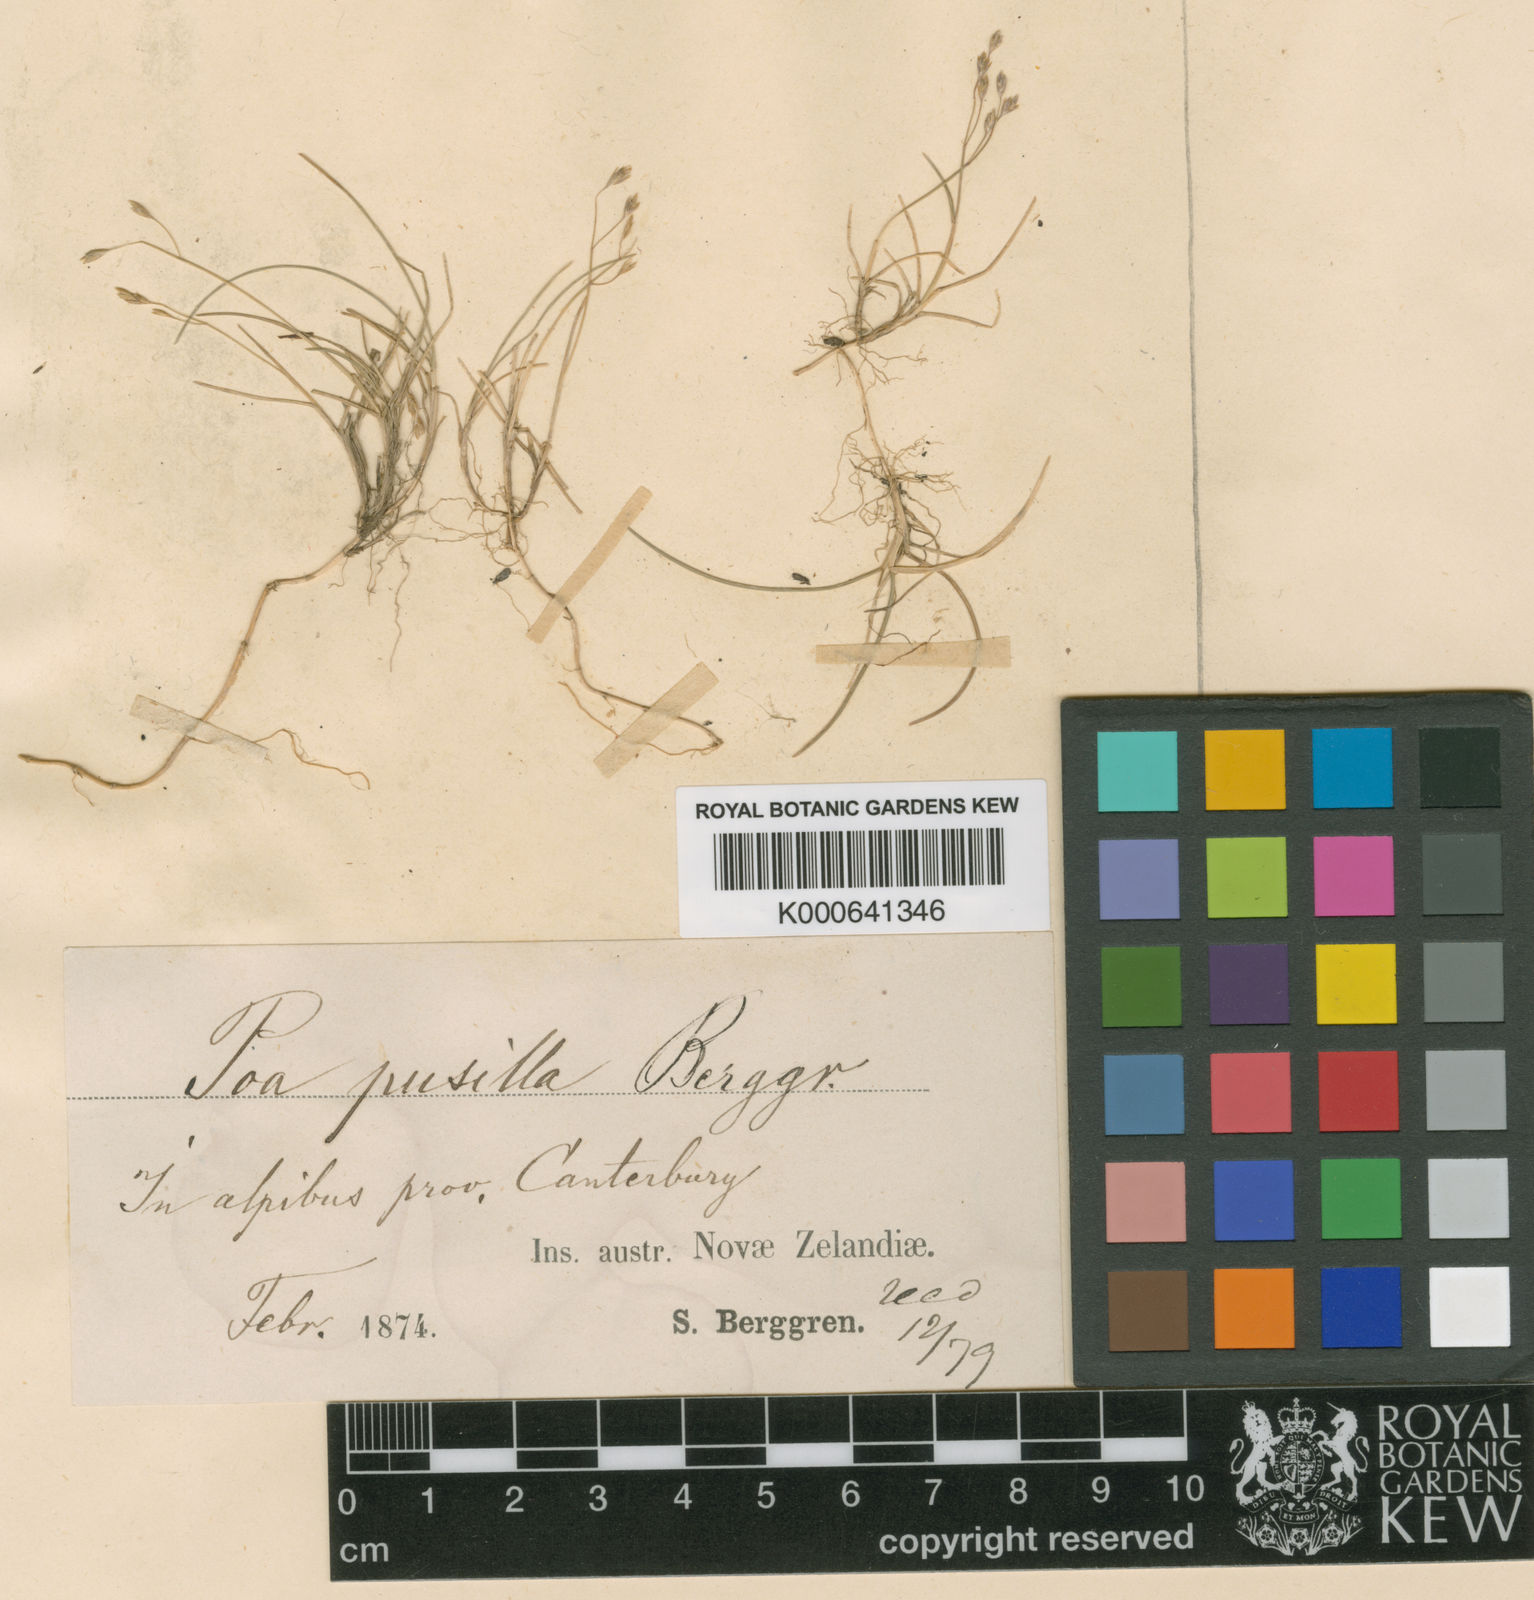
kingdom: Plantae
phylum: Tracheophyta
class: Liliopsida
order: Poales
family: Poaceae
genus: Poa
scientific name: Poa pusilla
